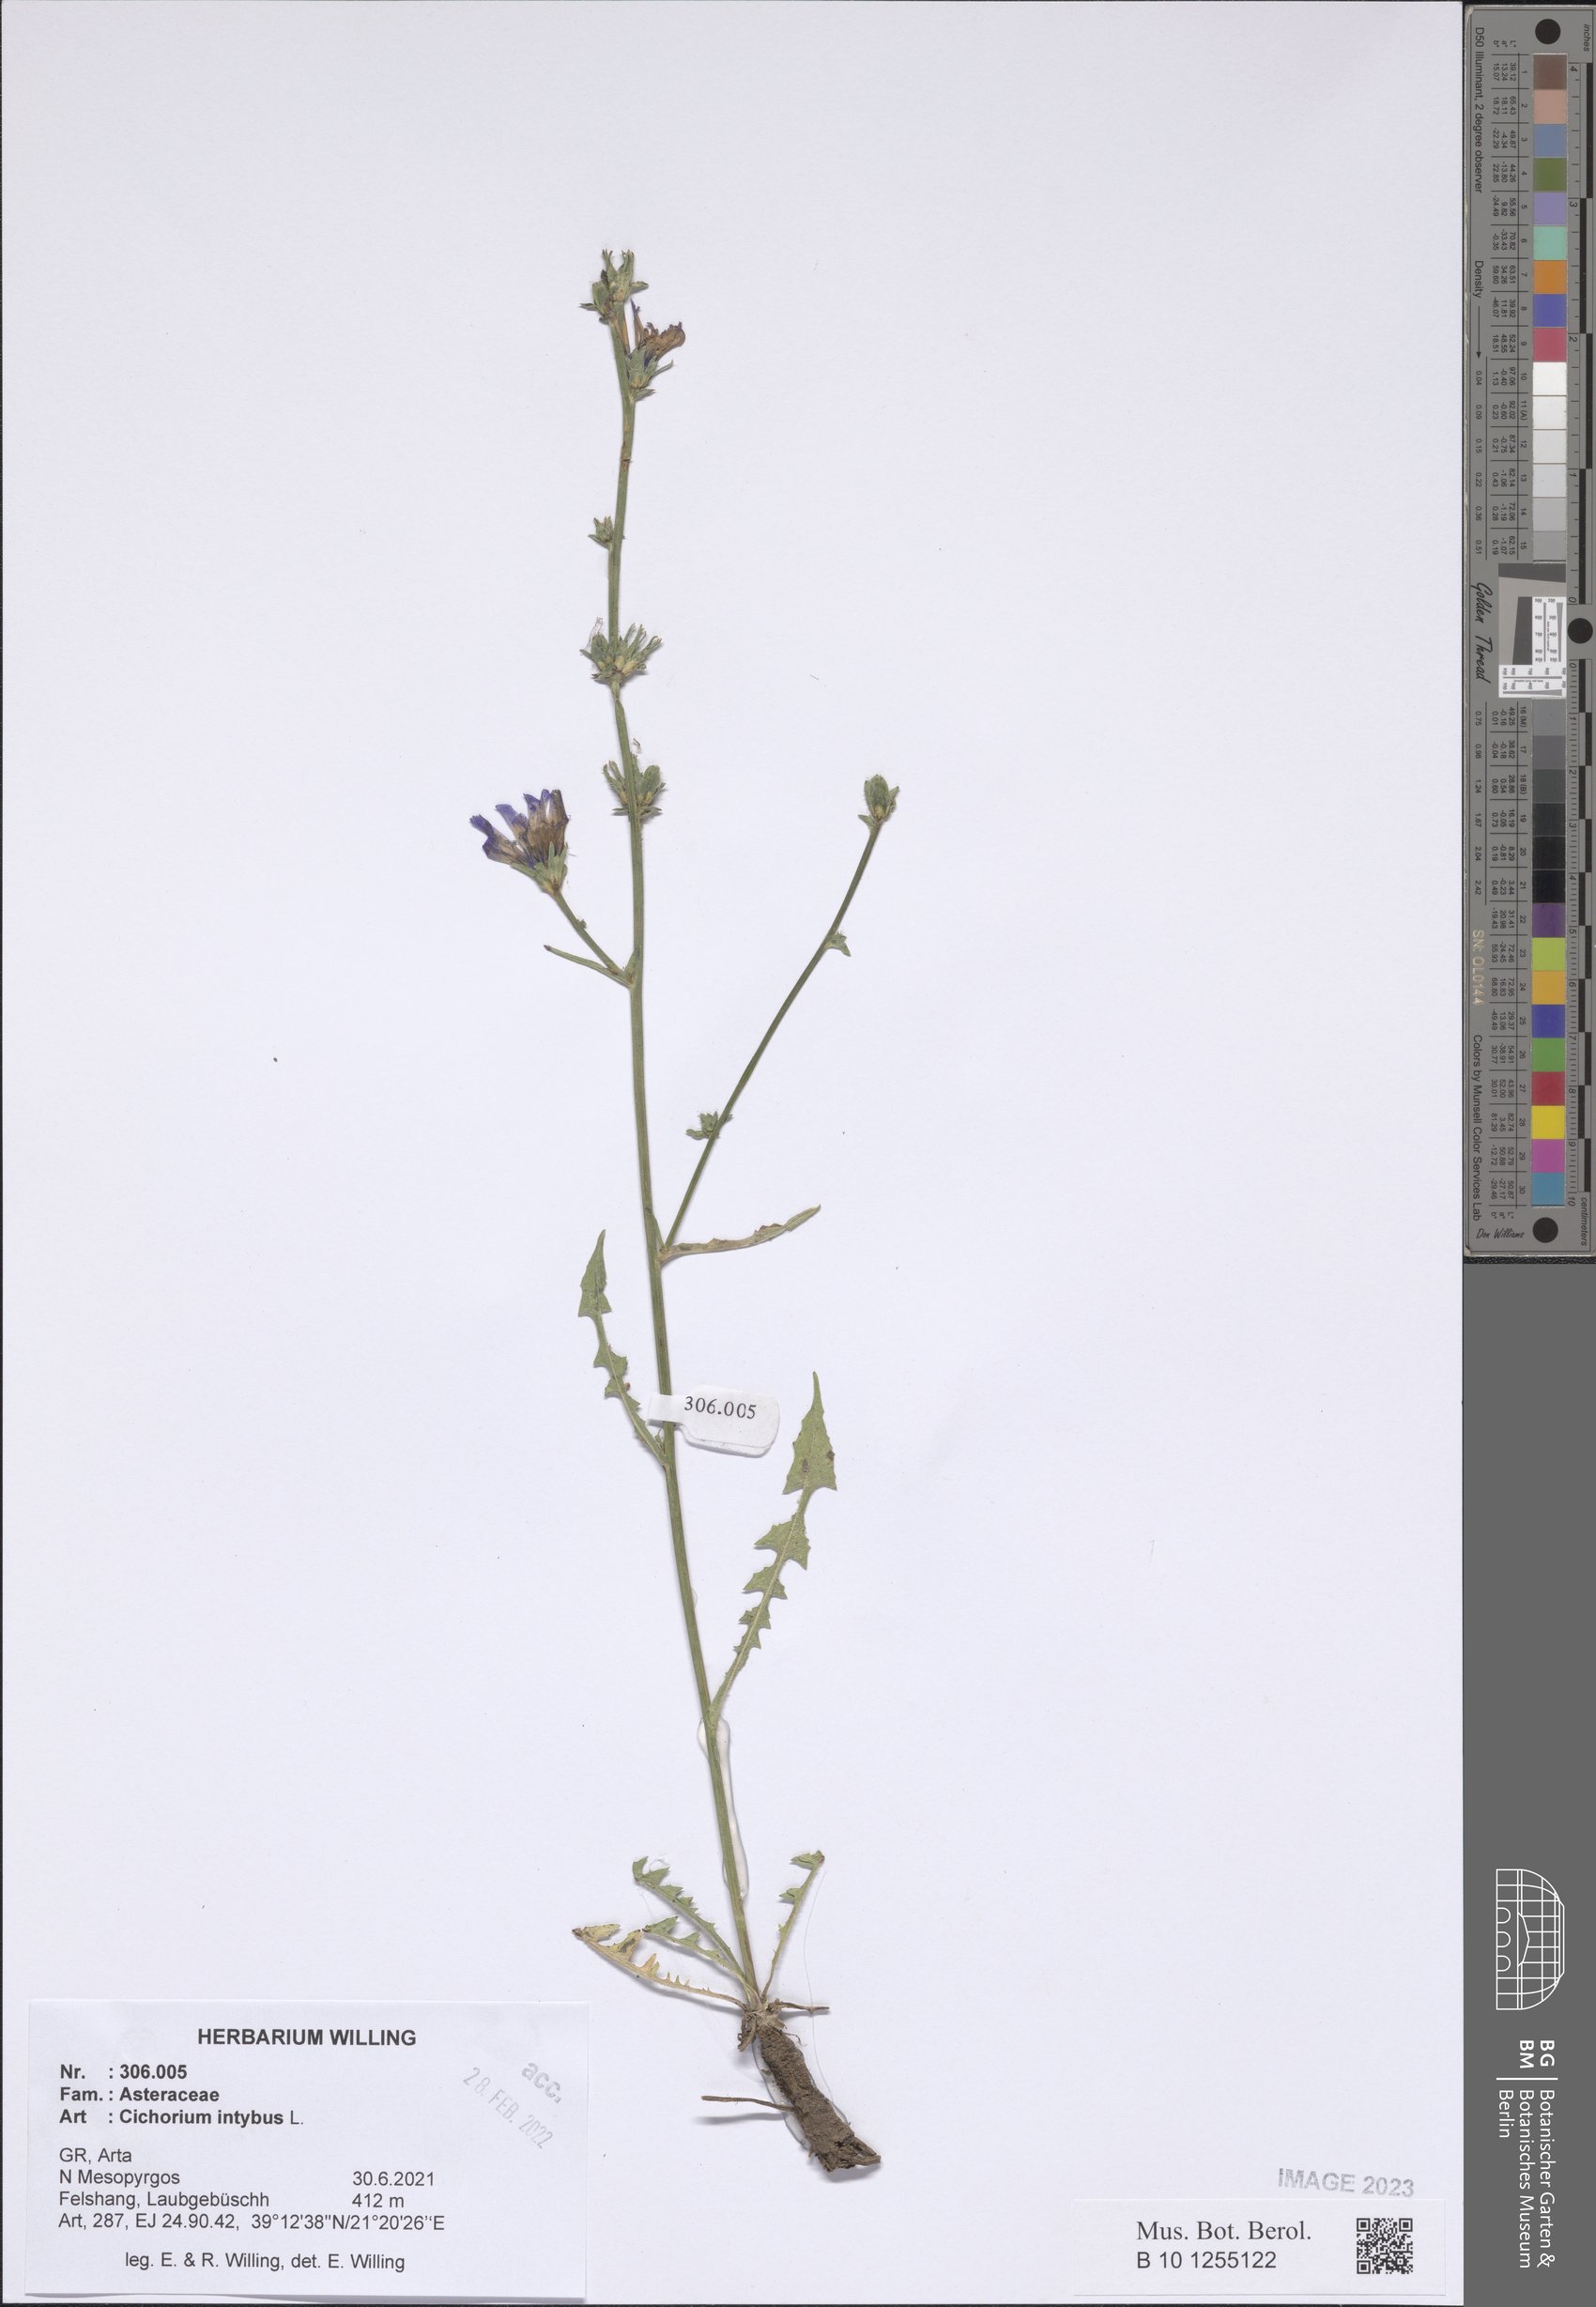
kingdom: Plantae
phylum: Tracheophyta
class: Magnoliopsida
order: Asterales
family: Asteraceae
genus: Cichorium
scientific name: Cichorium intybus
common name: Chicory
